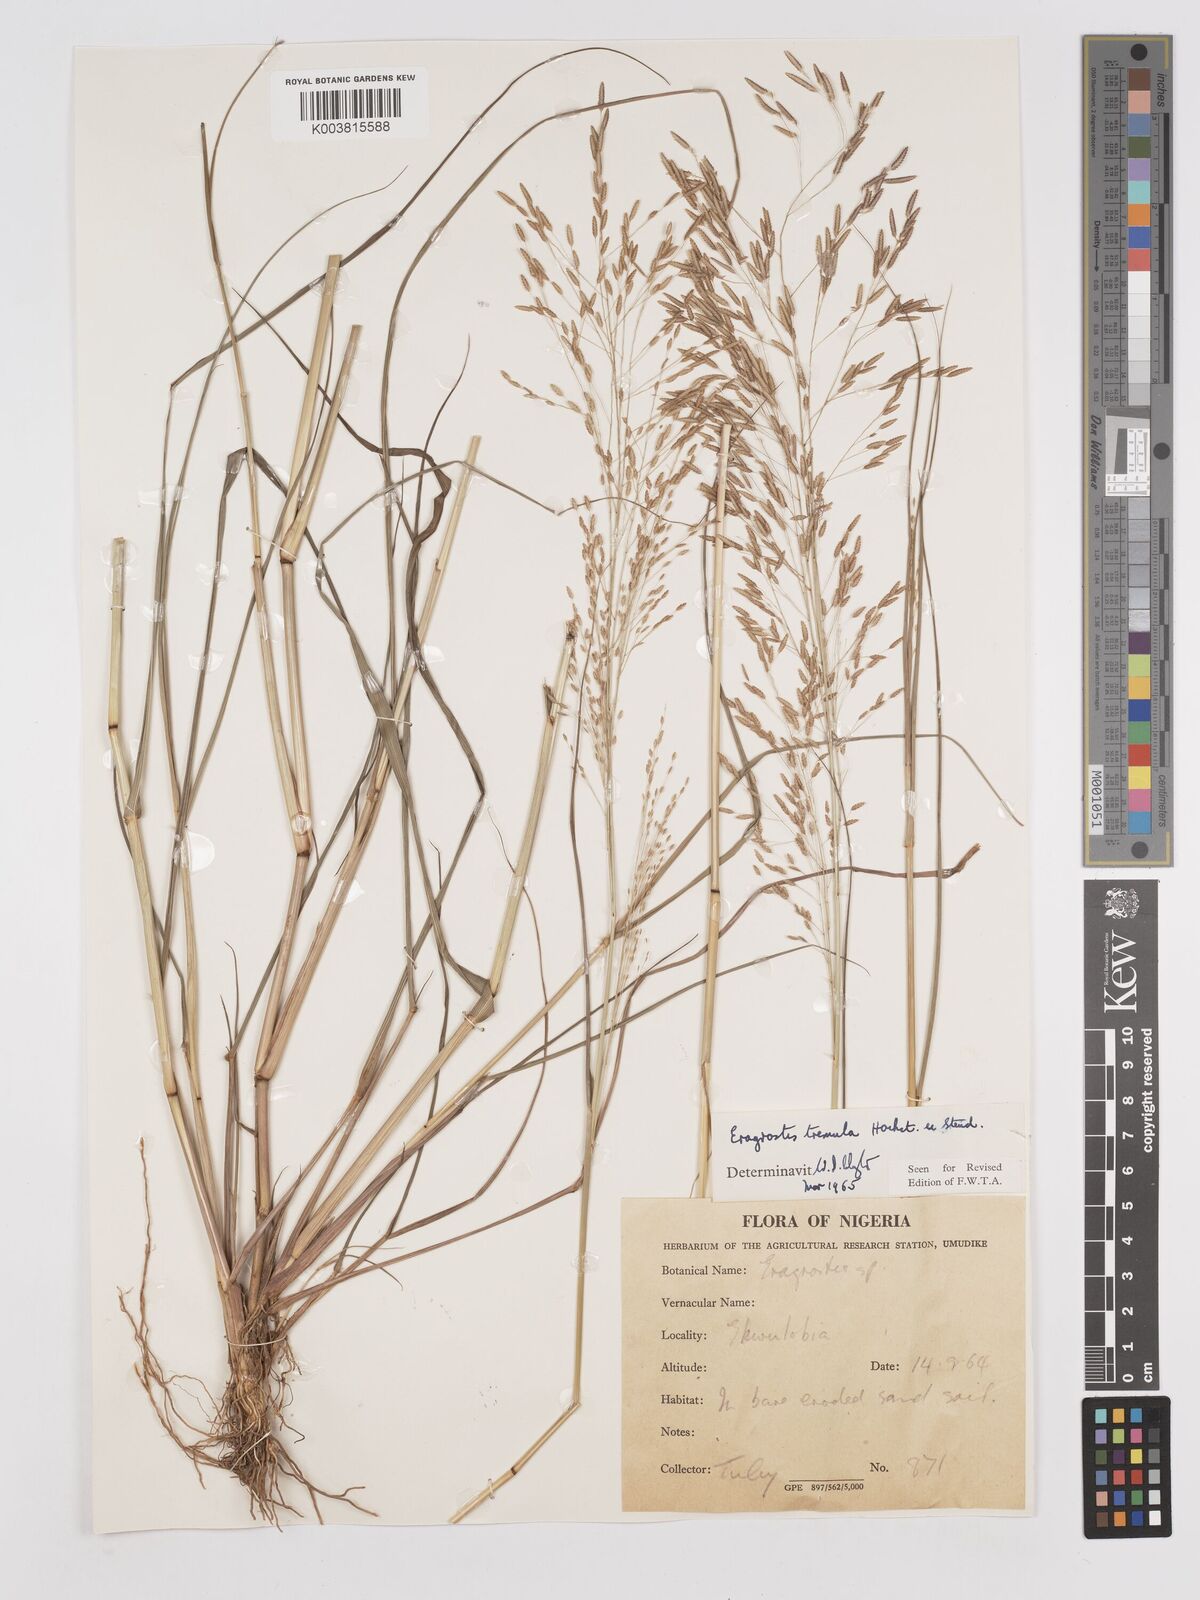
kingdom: Plantae
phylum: Tracheophyta
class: Liliopsida
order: Poales
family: Poaceae
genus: Eragrostis
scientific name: Eragrostis tremula
